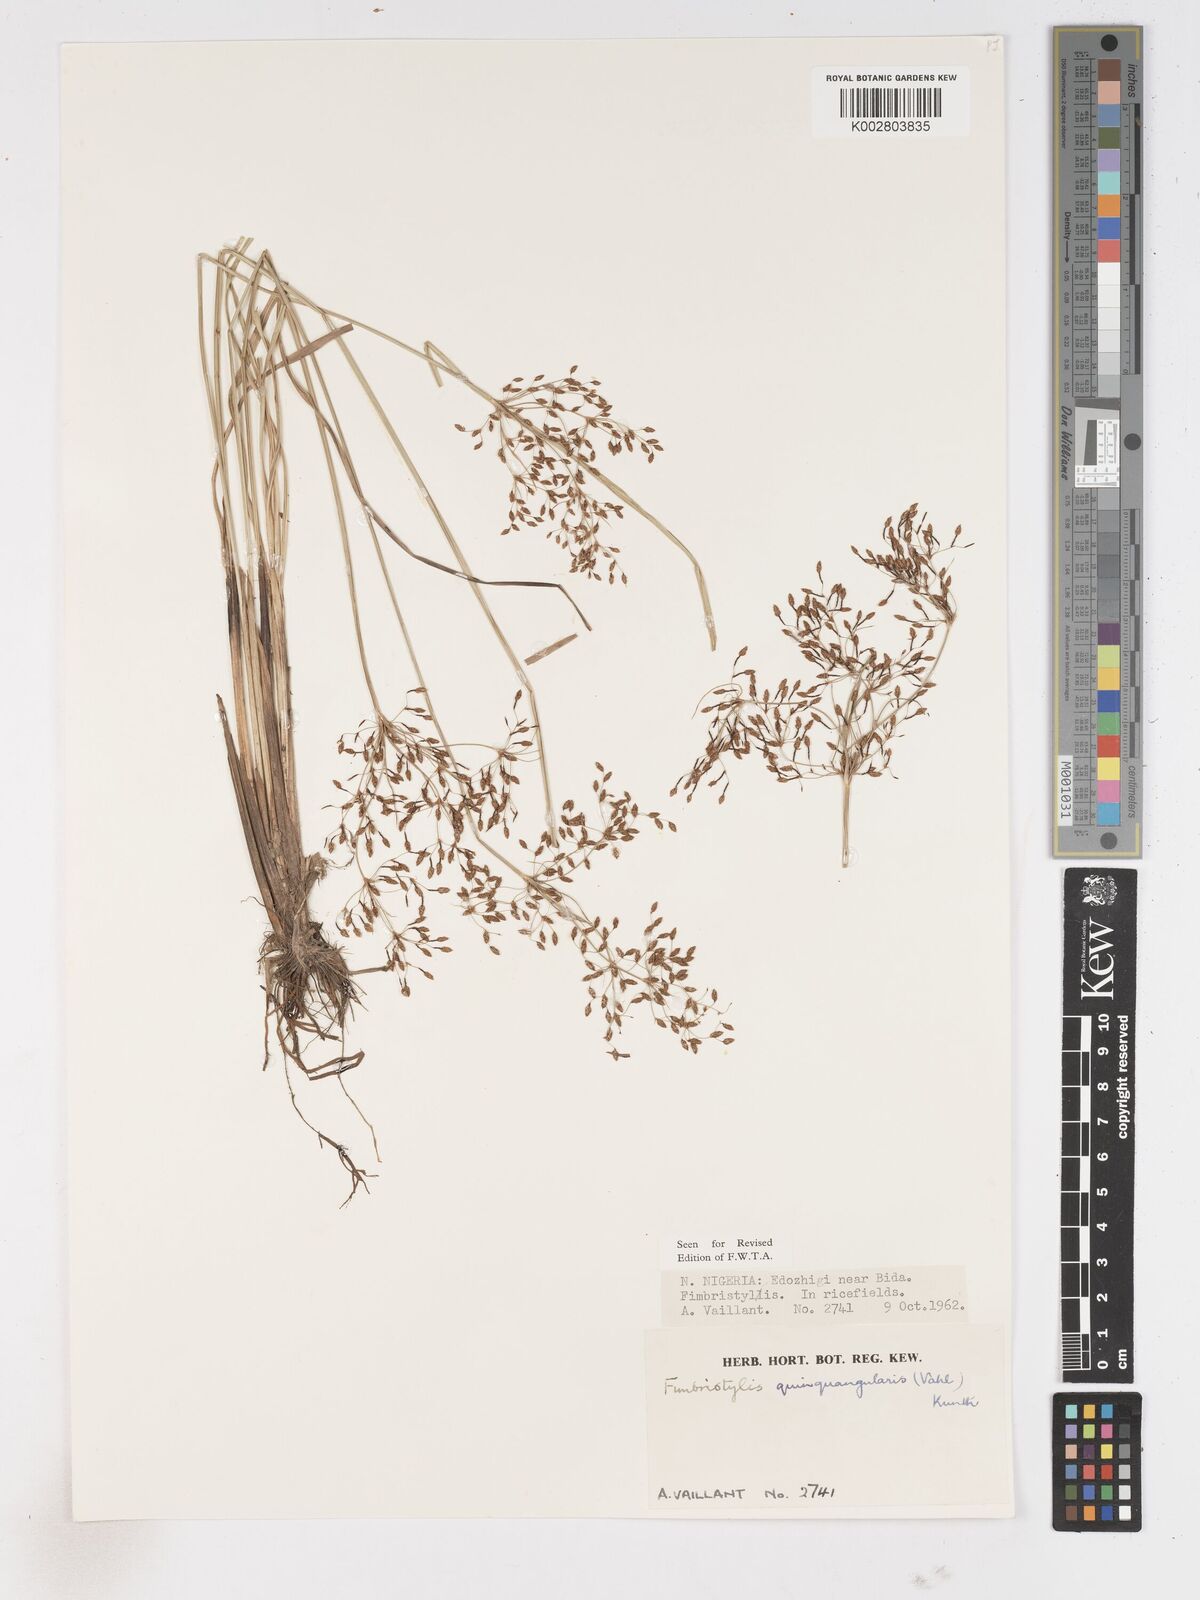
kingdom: Plantae
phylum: Tracheophyta
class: Liliopsida
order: Poales
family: Cyperaceae
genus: Fimbristylis
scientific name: Fimbristylis quinquangularis
